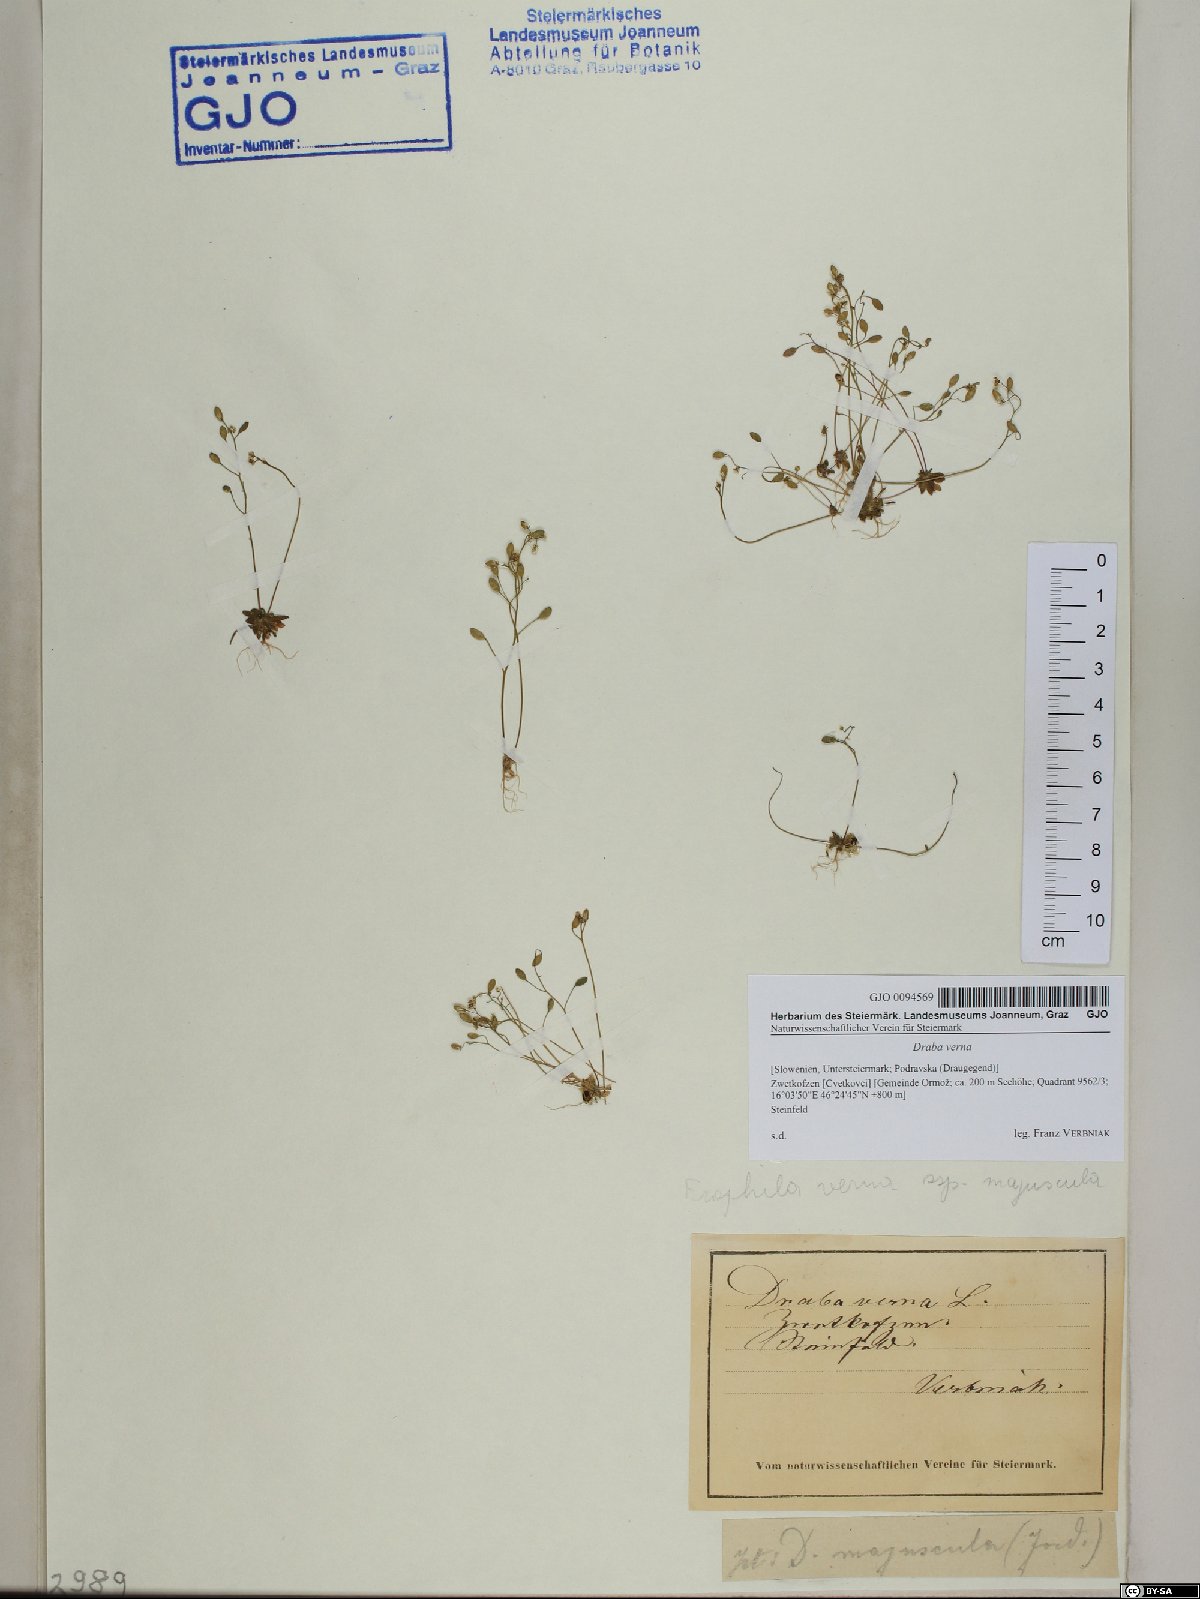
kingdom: Plantae
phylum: Tracheophyta
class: Magnoliopsida
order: Brassicales
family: Brassicaceae
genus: Draba
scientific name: Draba verna
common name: Spring draba
